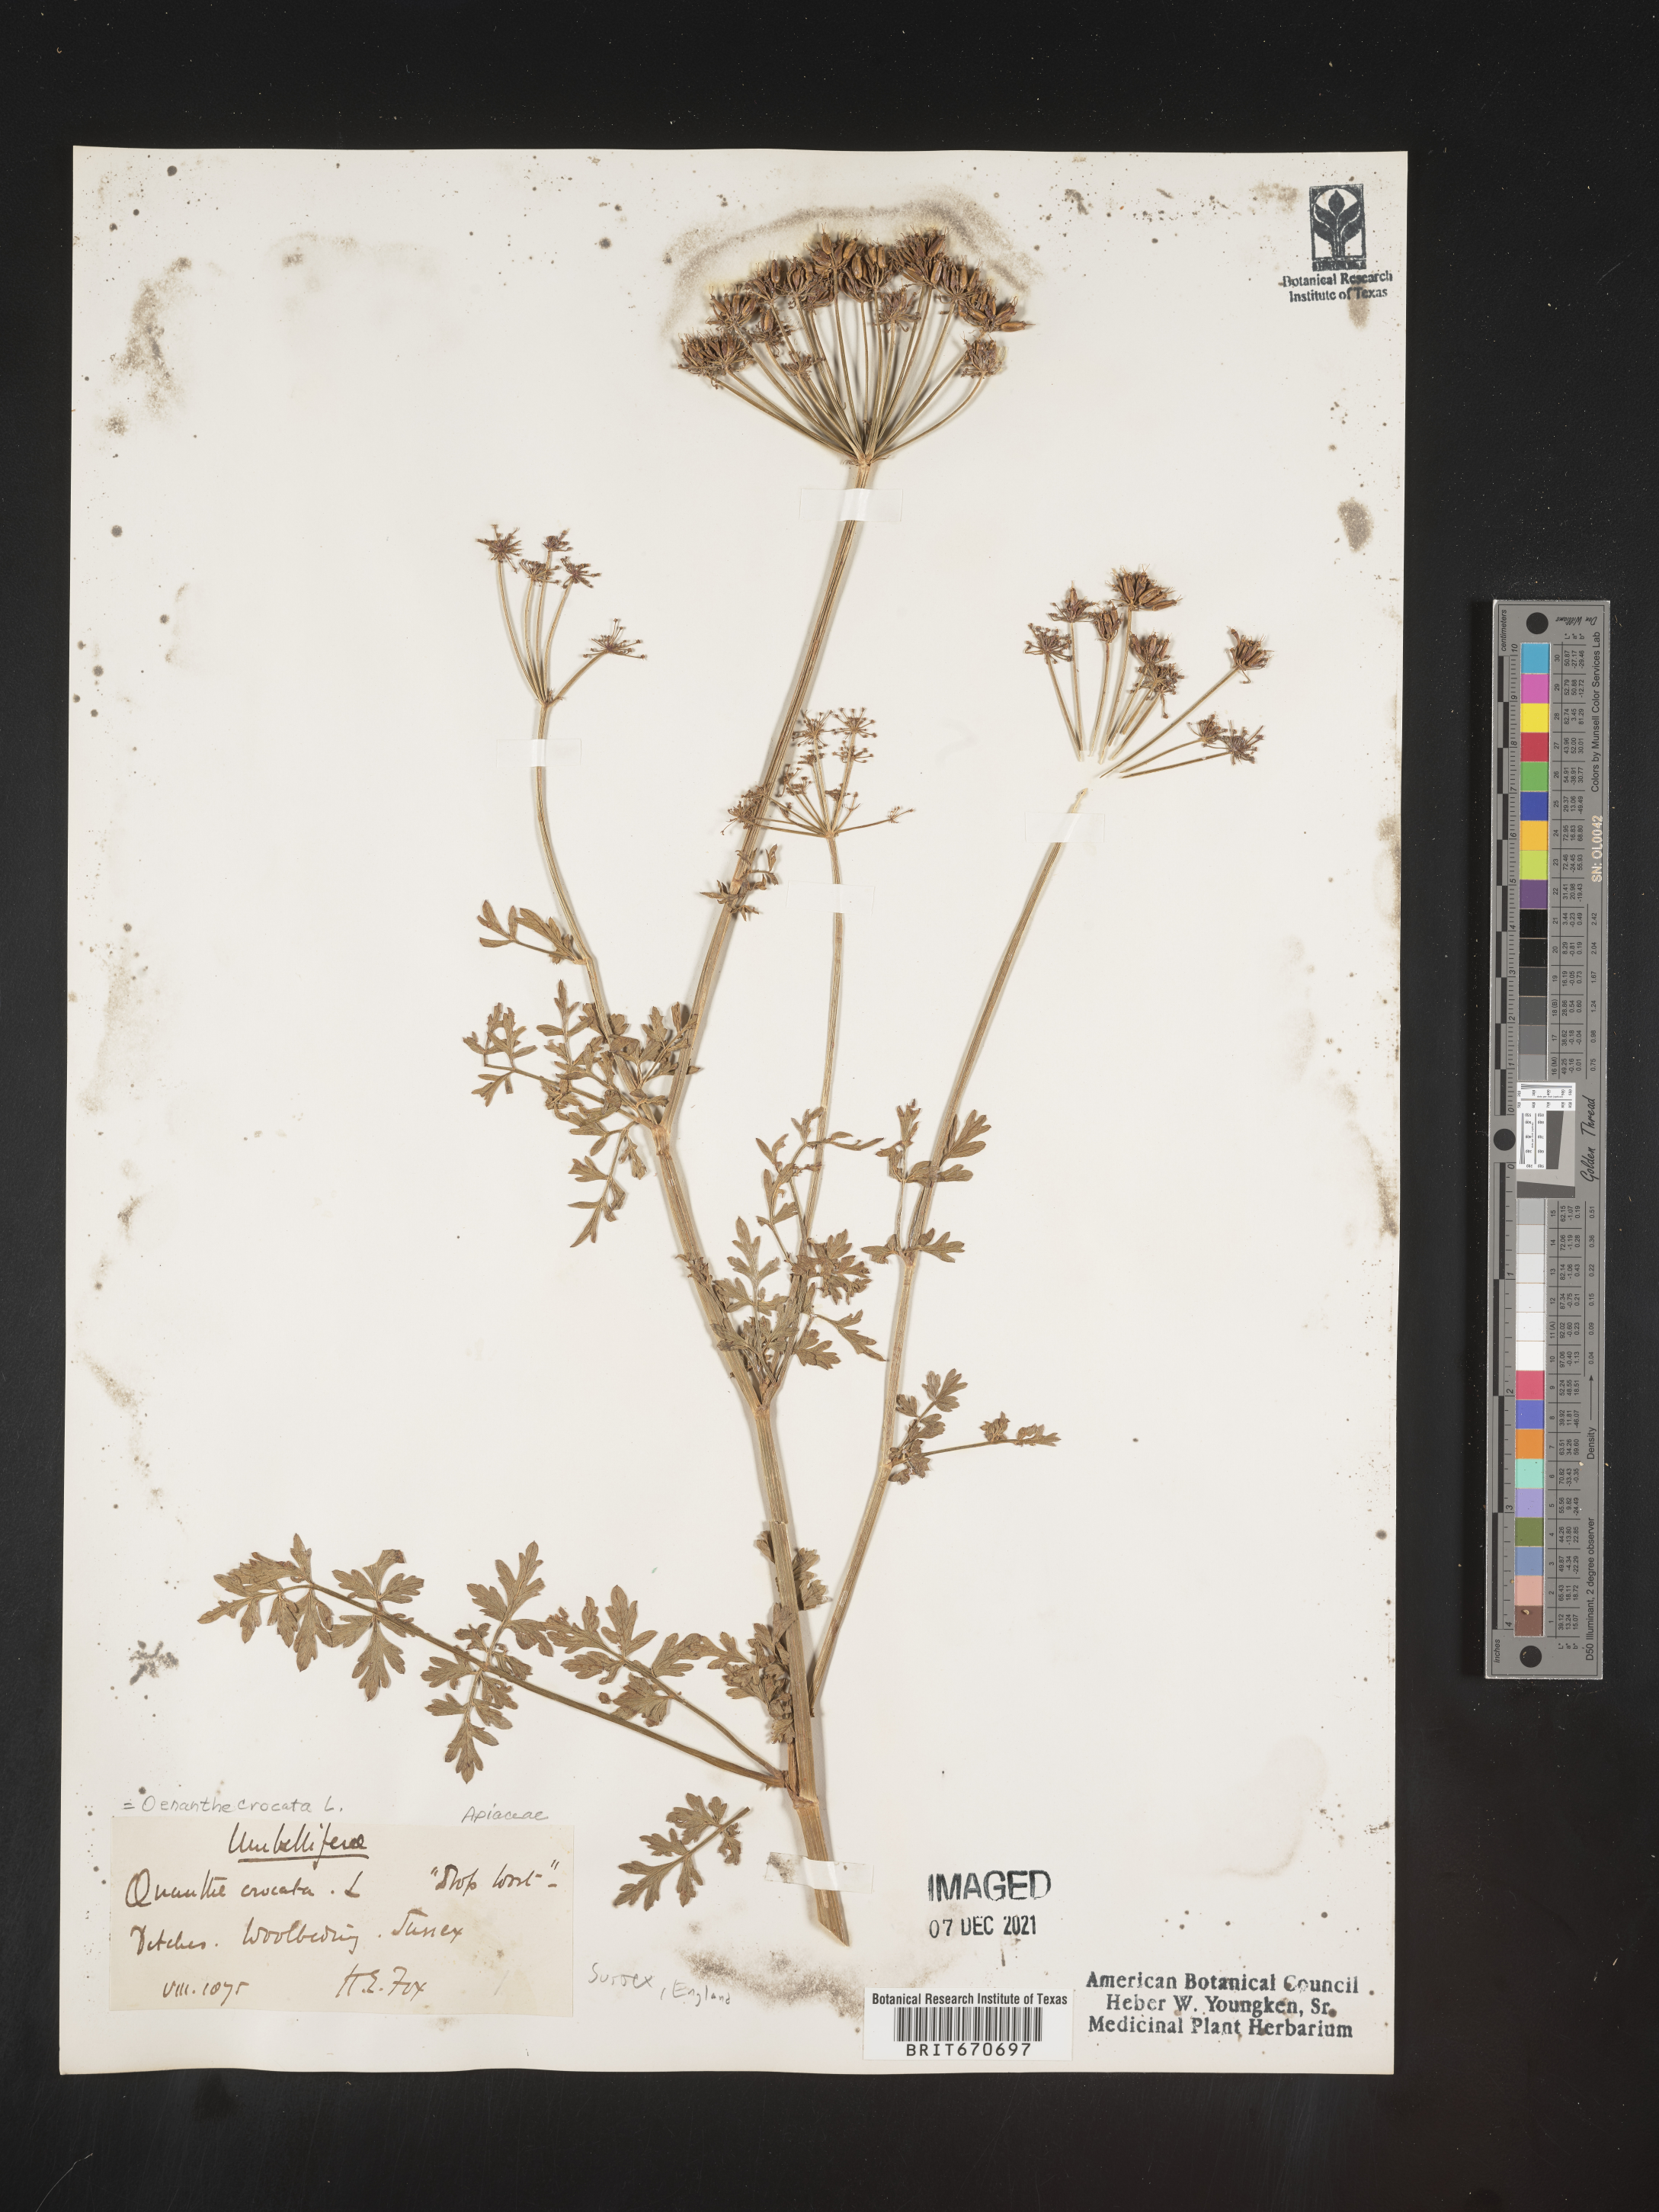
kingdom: Plantae
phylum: Tracheophyta
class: Magnoliopsida
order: Apiales
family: Apiaceae
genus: Oenanthe
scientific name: Oenanthe
